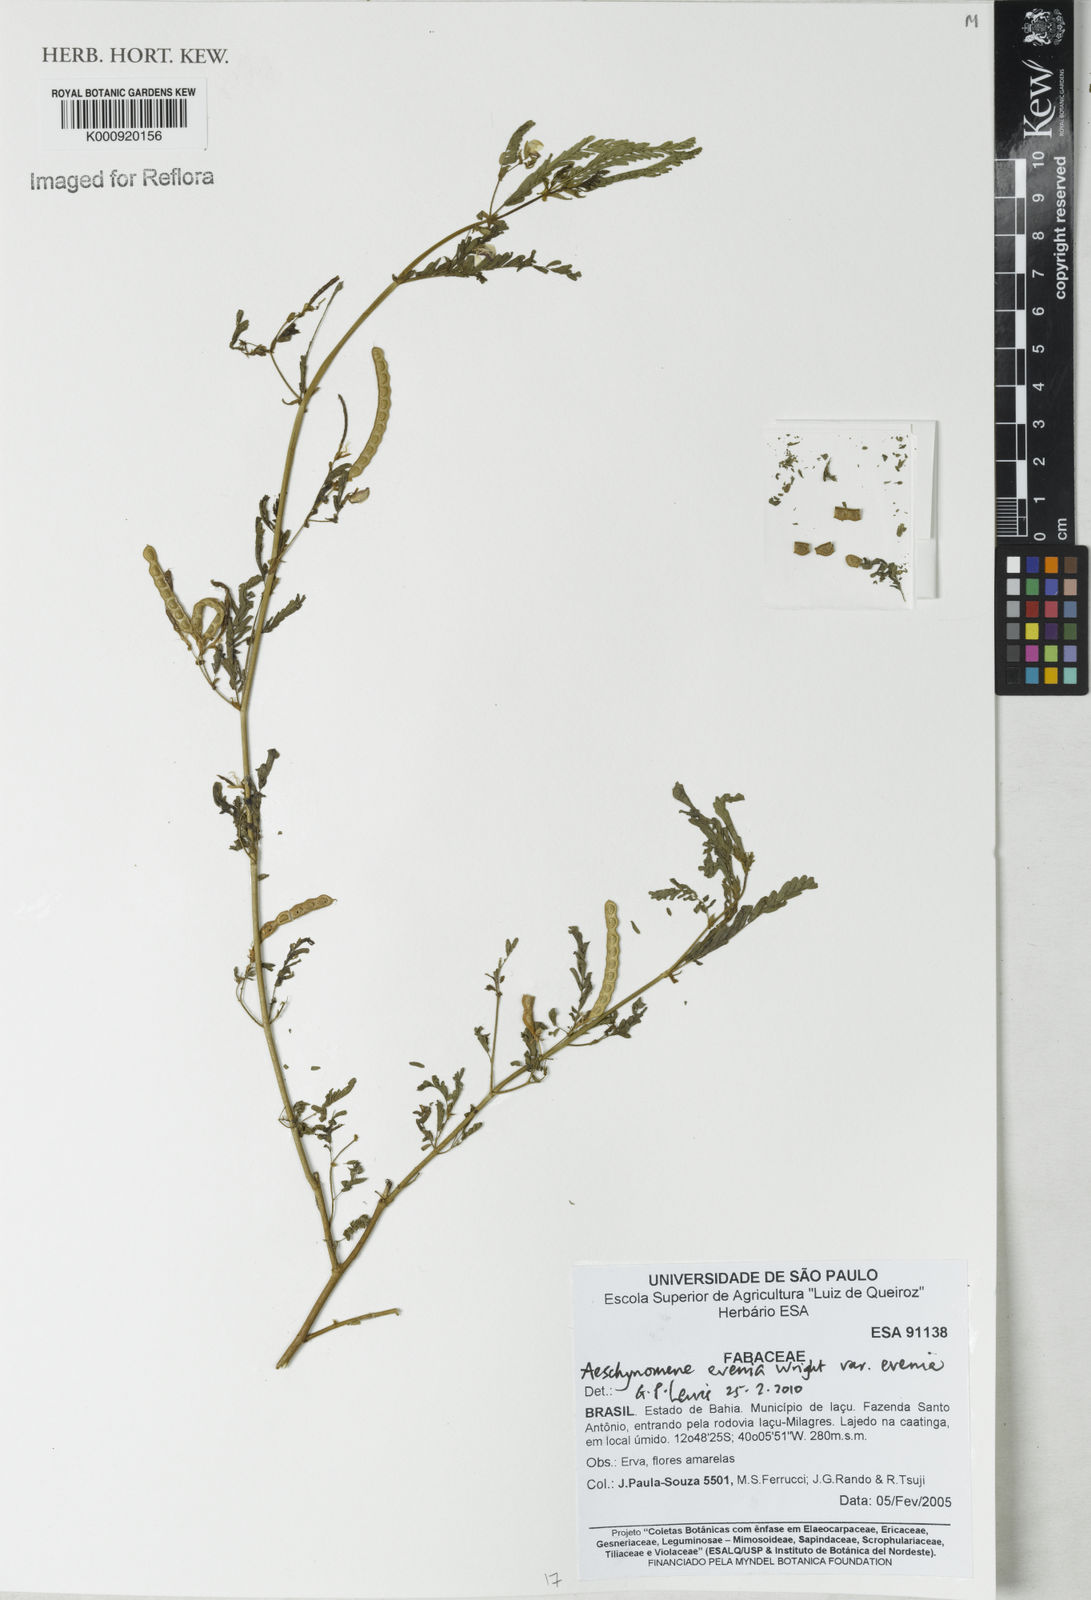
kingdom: Plantae
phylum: Tracheophyta
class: Magnoliopsida
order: Fabales
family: Fabaceae
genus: Aeschynomene
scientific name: Aeschynomene evenia
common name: Shrubby jointvetch
